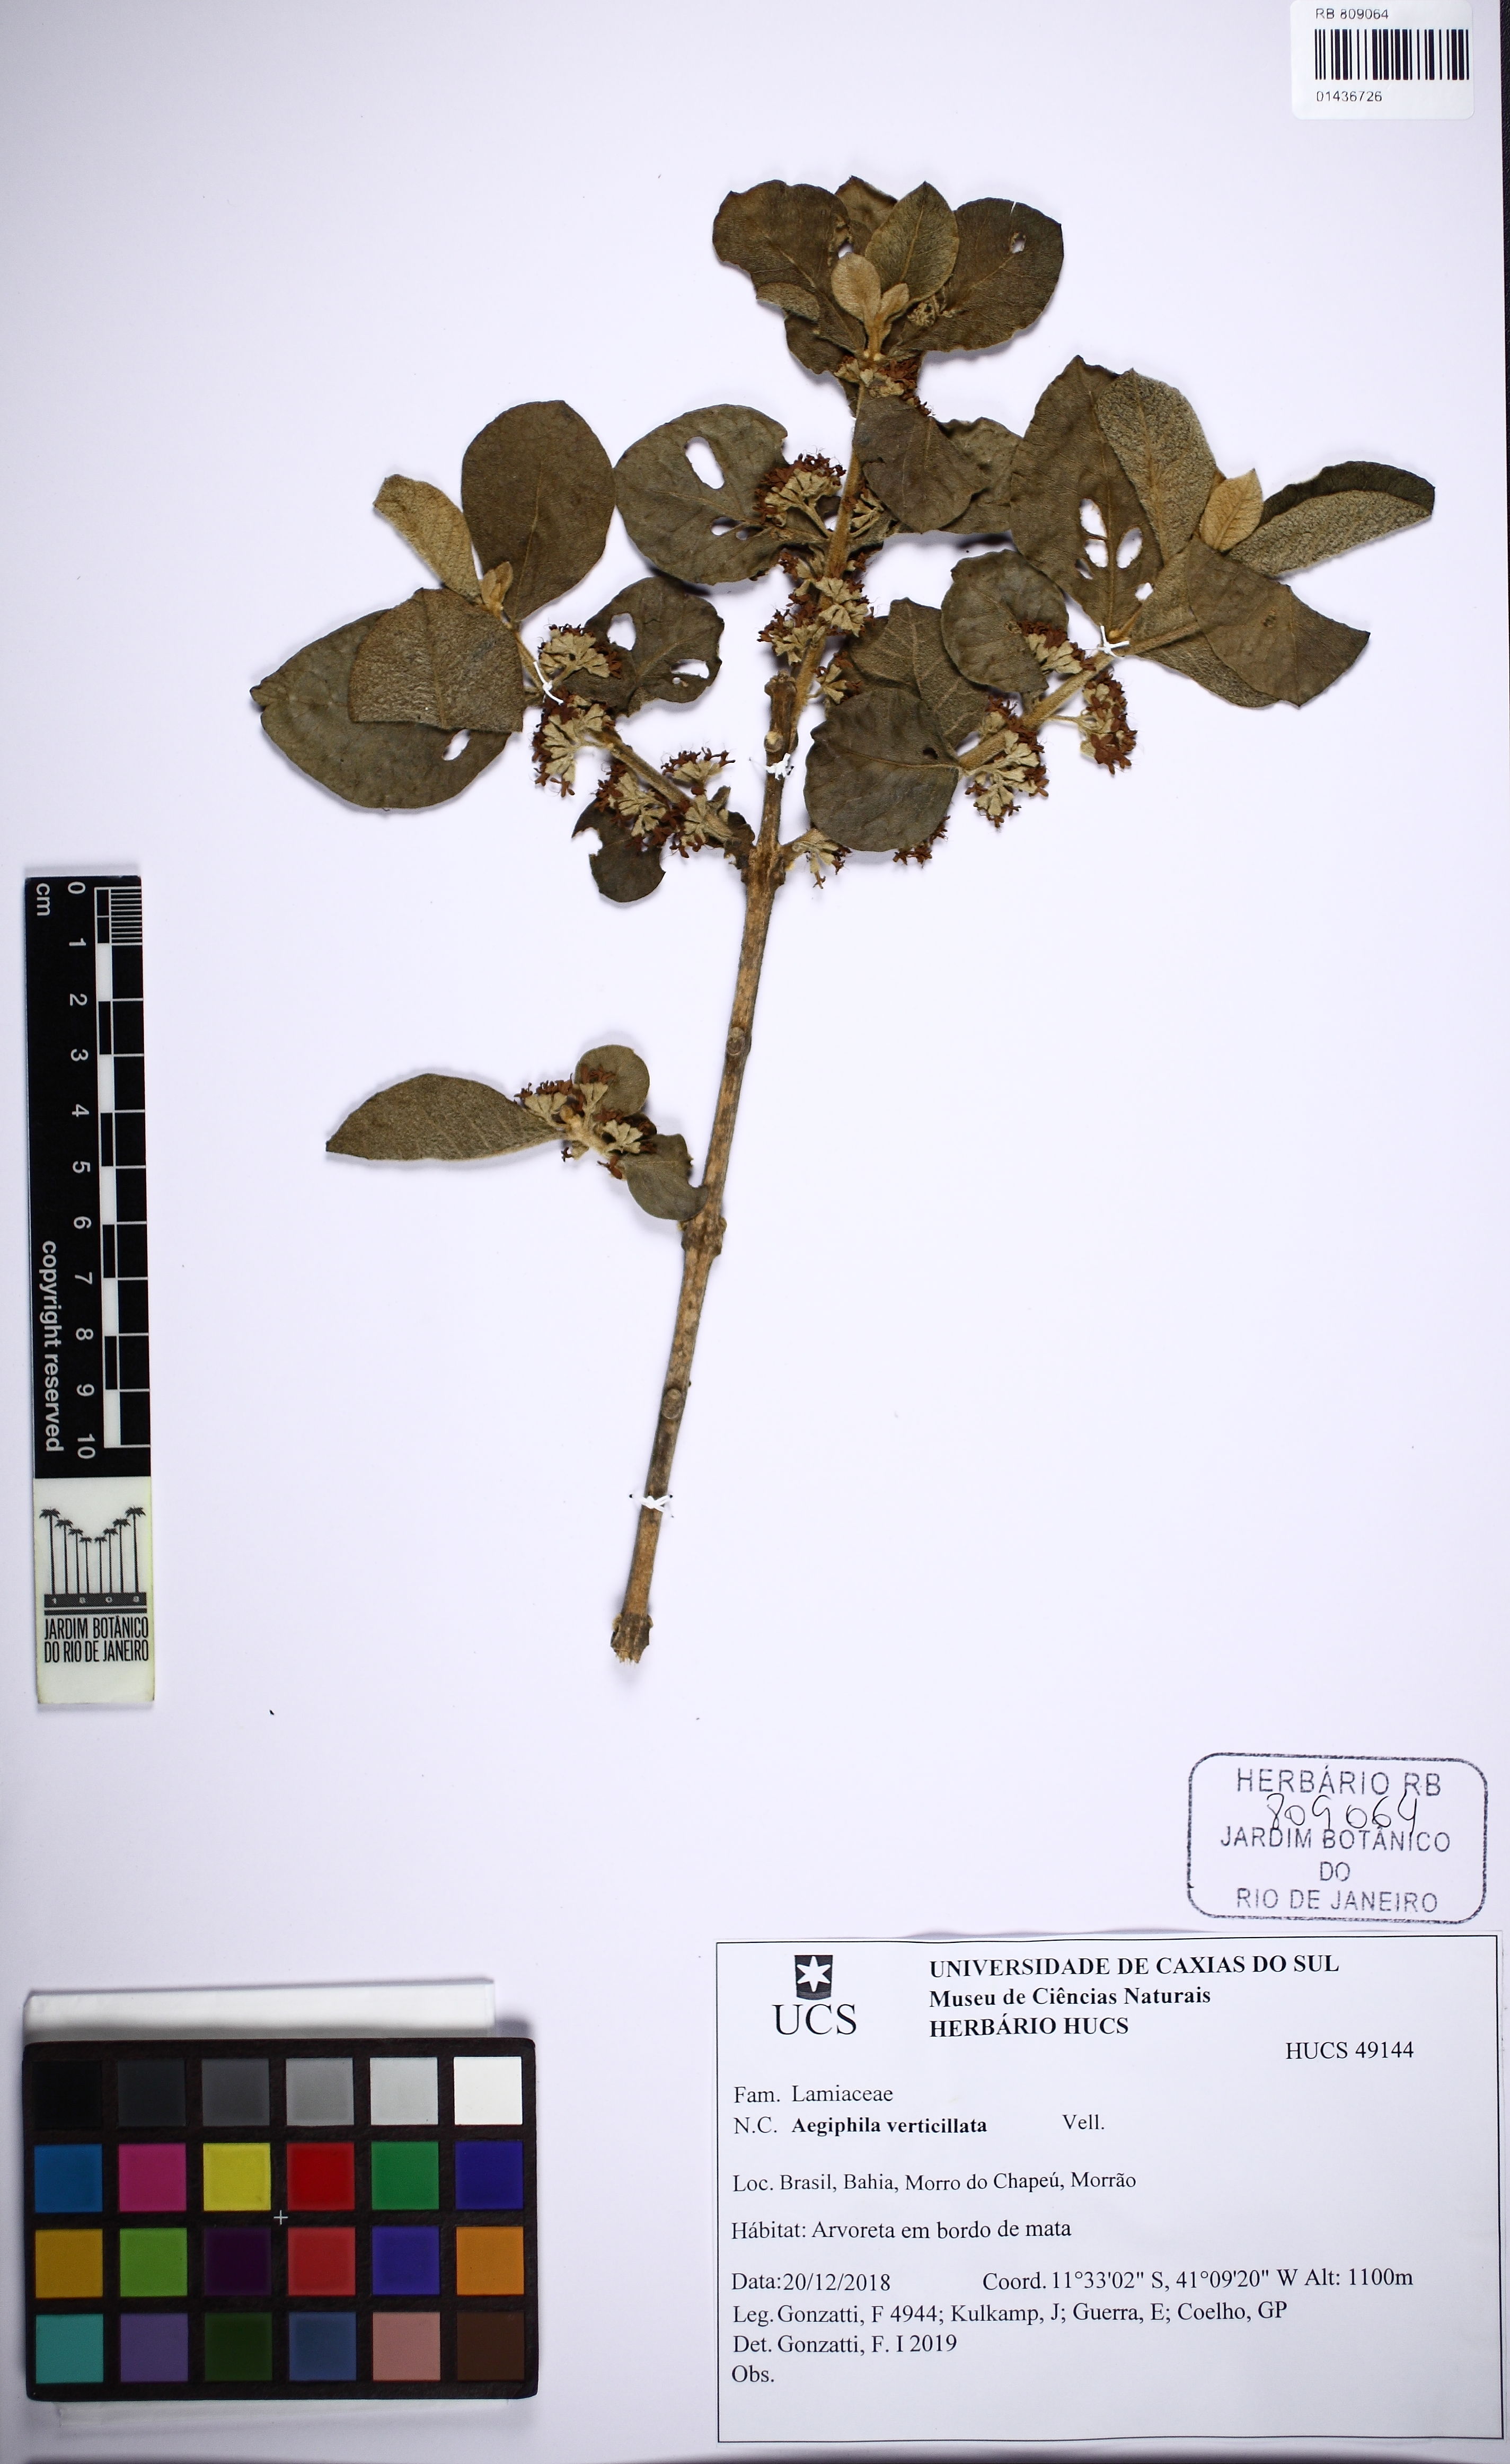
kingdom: Plantae
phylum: Tracheophyta
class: Magnoliopsida
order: Lamiales
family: Lamiaceae
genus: Aegiphila
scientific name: Aegiphila verticillata
